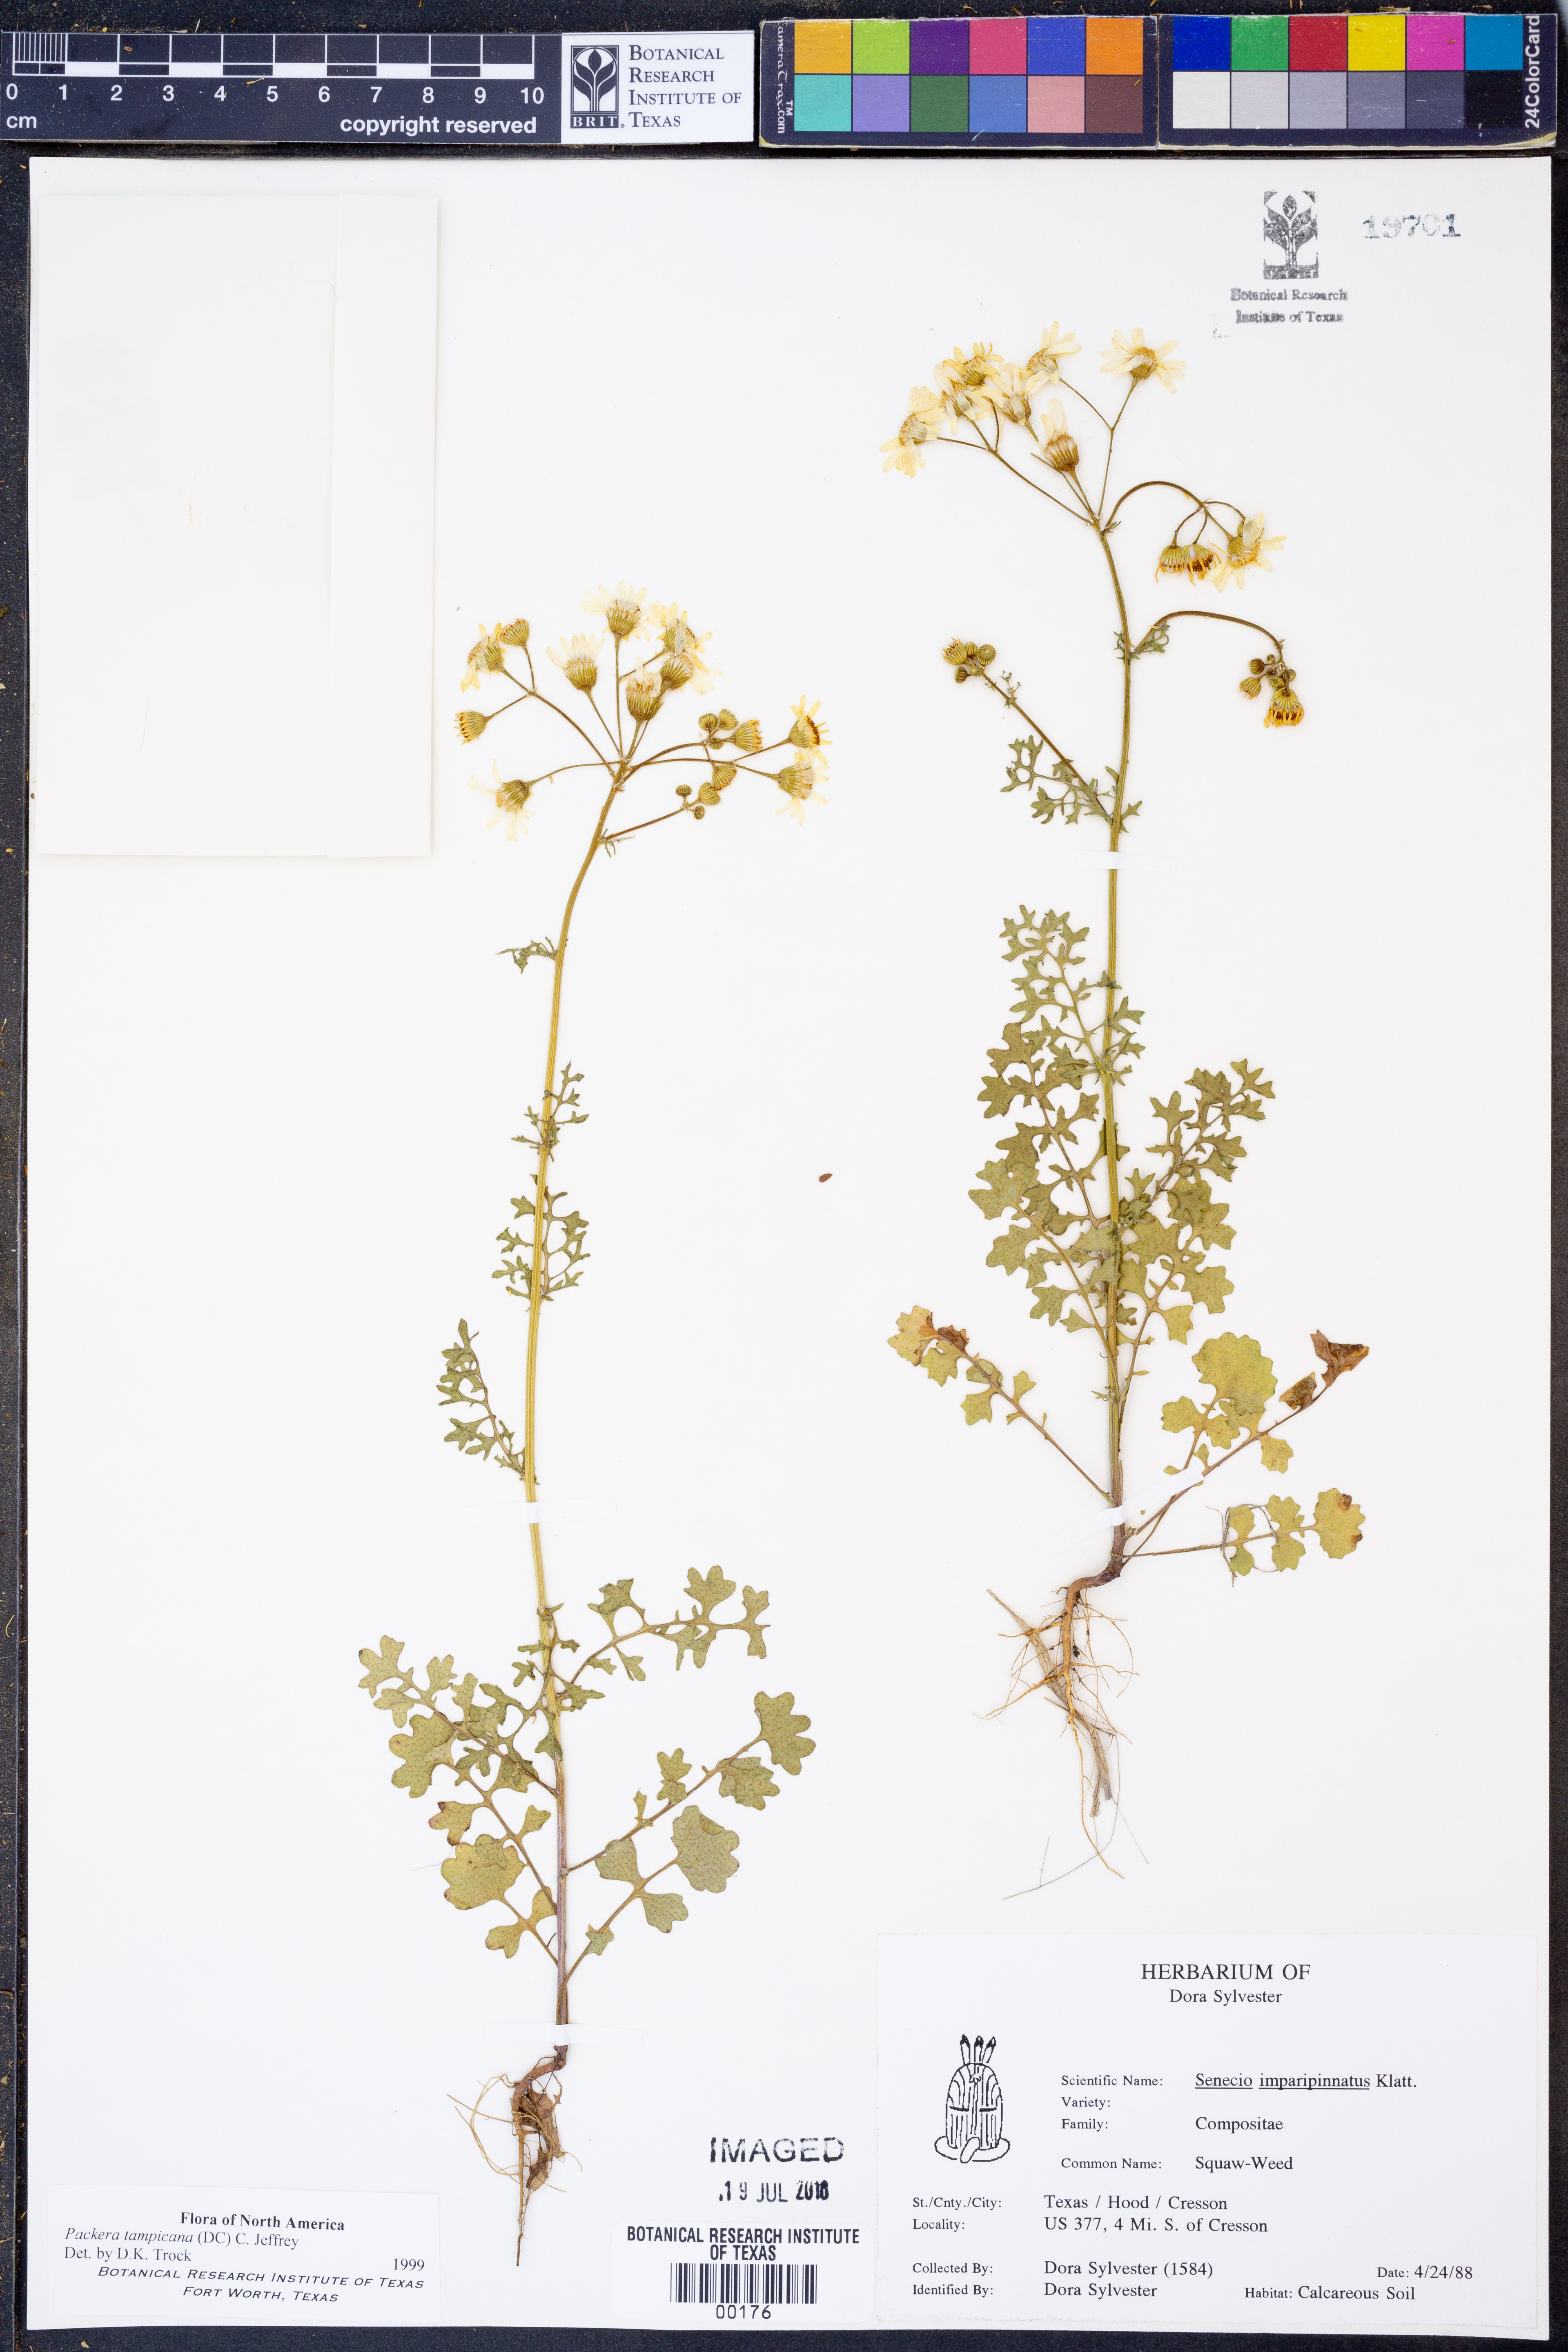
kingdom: Plantae
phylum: Tracheophyta
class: Magnoliopsida
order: Asterales
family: Asteraceae
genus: Packera
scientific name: Packera tampicana
